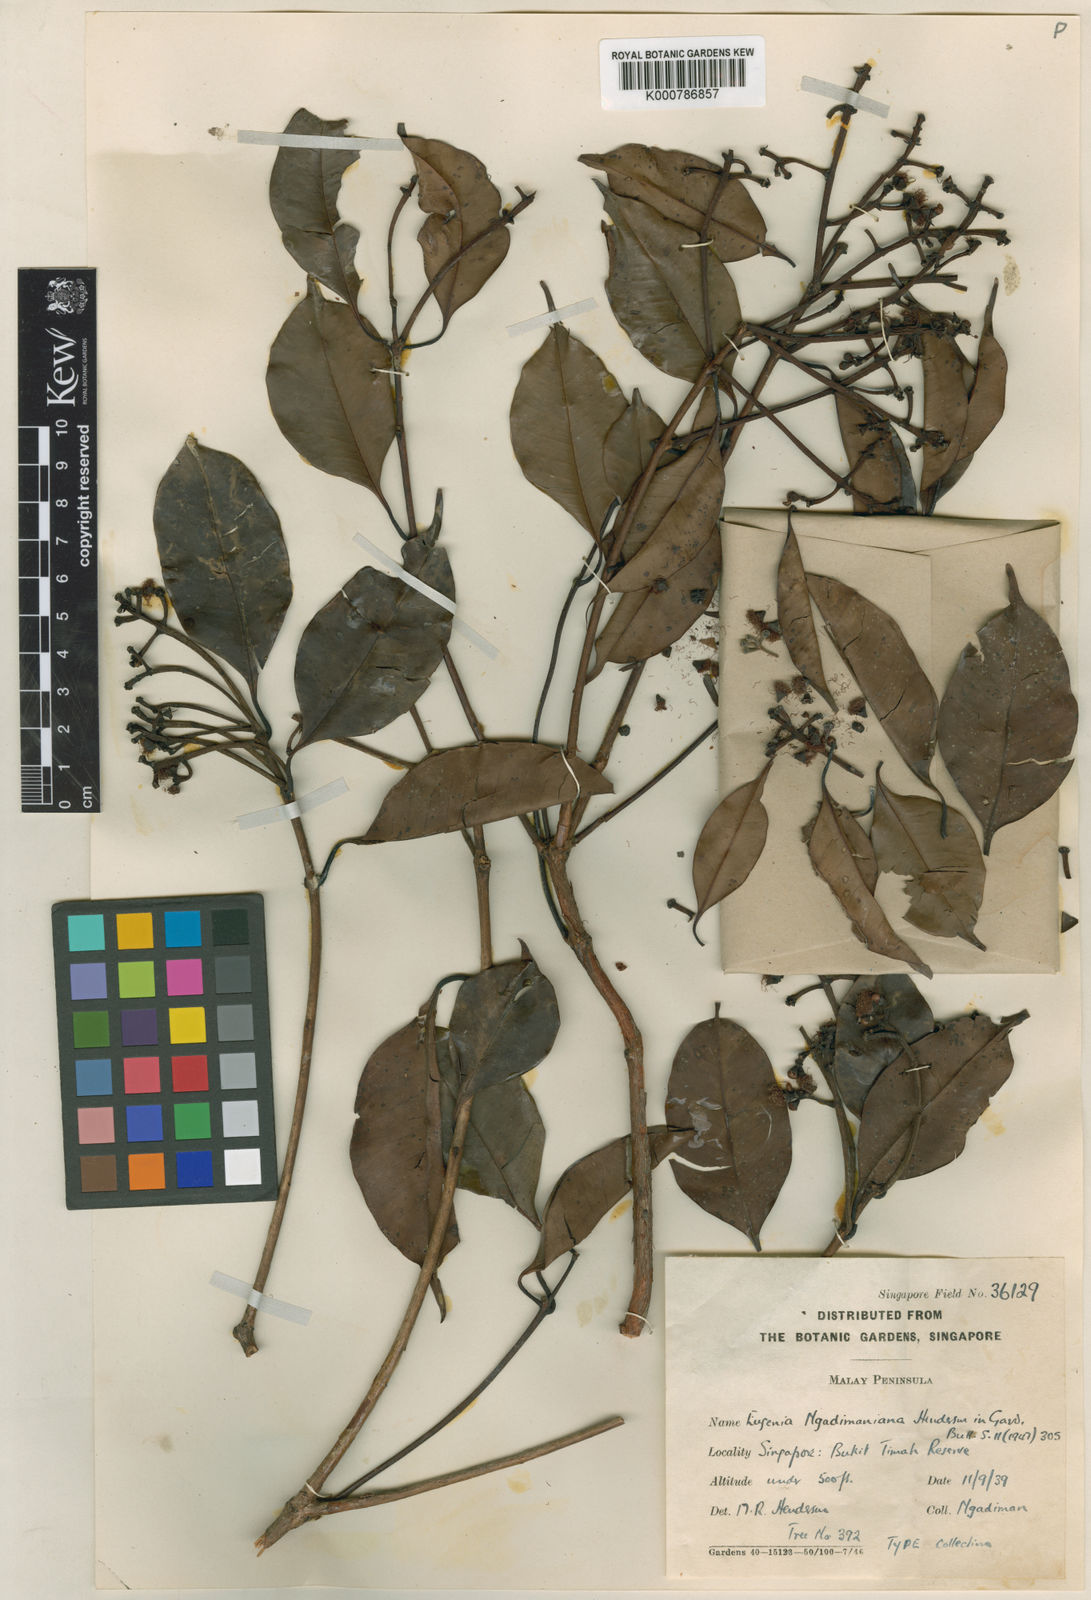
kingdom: Plantae
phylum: Tracheophyta
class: Magnoliopsida
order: Myrtales
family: Myrtaceae
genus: Syzygium
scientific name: Syzygium ngadimanianum
